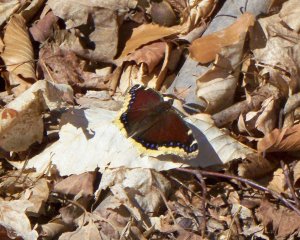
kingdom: Animalia
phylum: Arthropoda
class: Insecta
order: Lepidoptera
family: Nymphalidae
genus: Nymphalis
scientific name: Nymphalis antiopa
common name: Mourning Cloak
